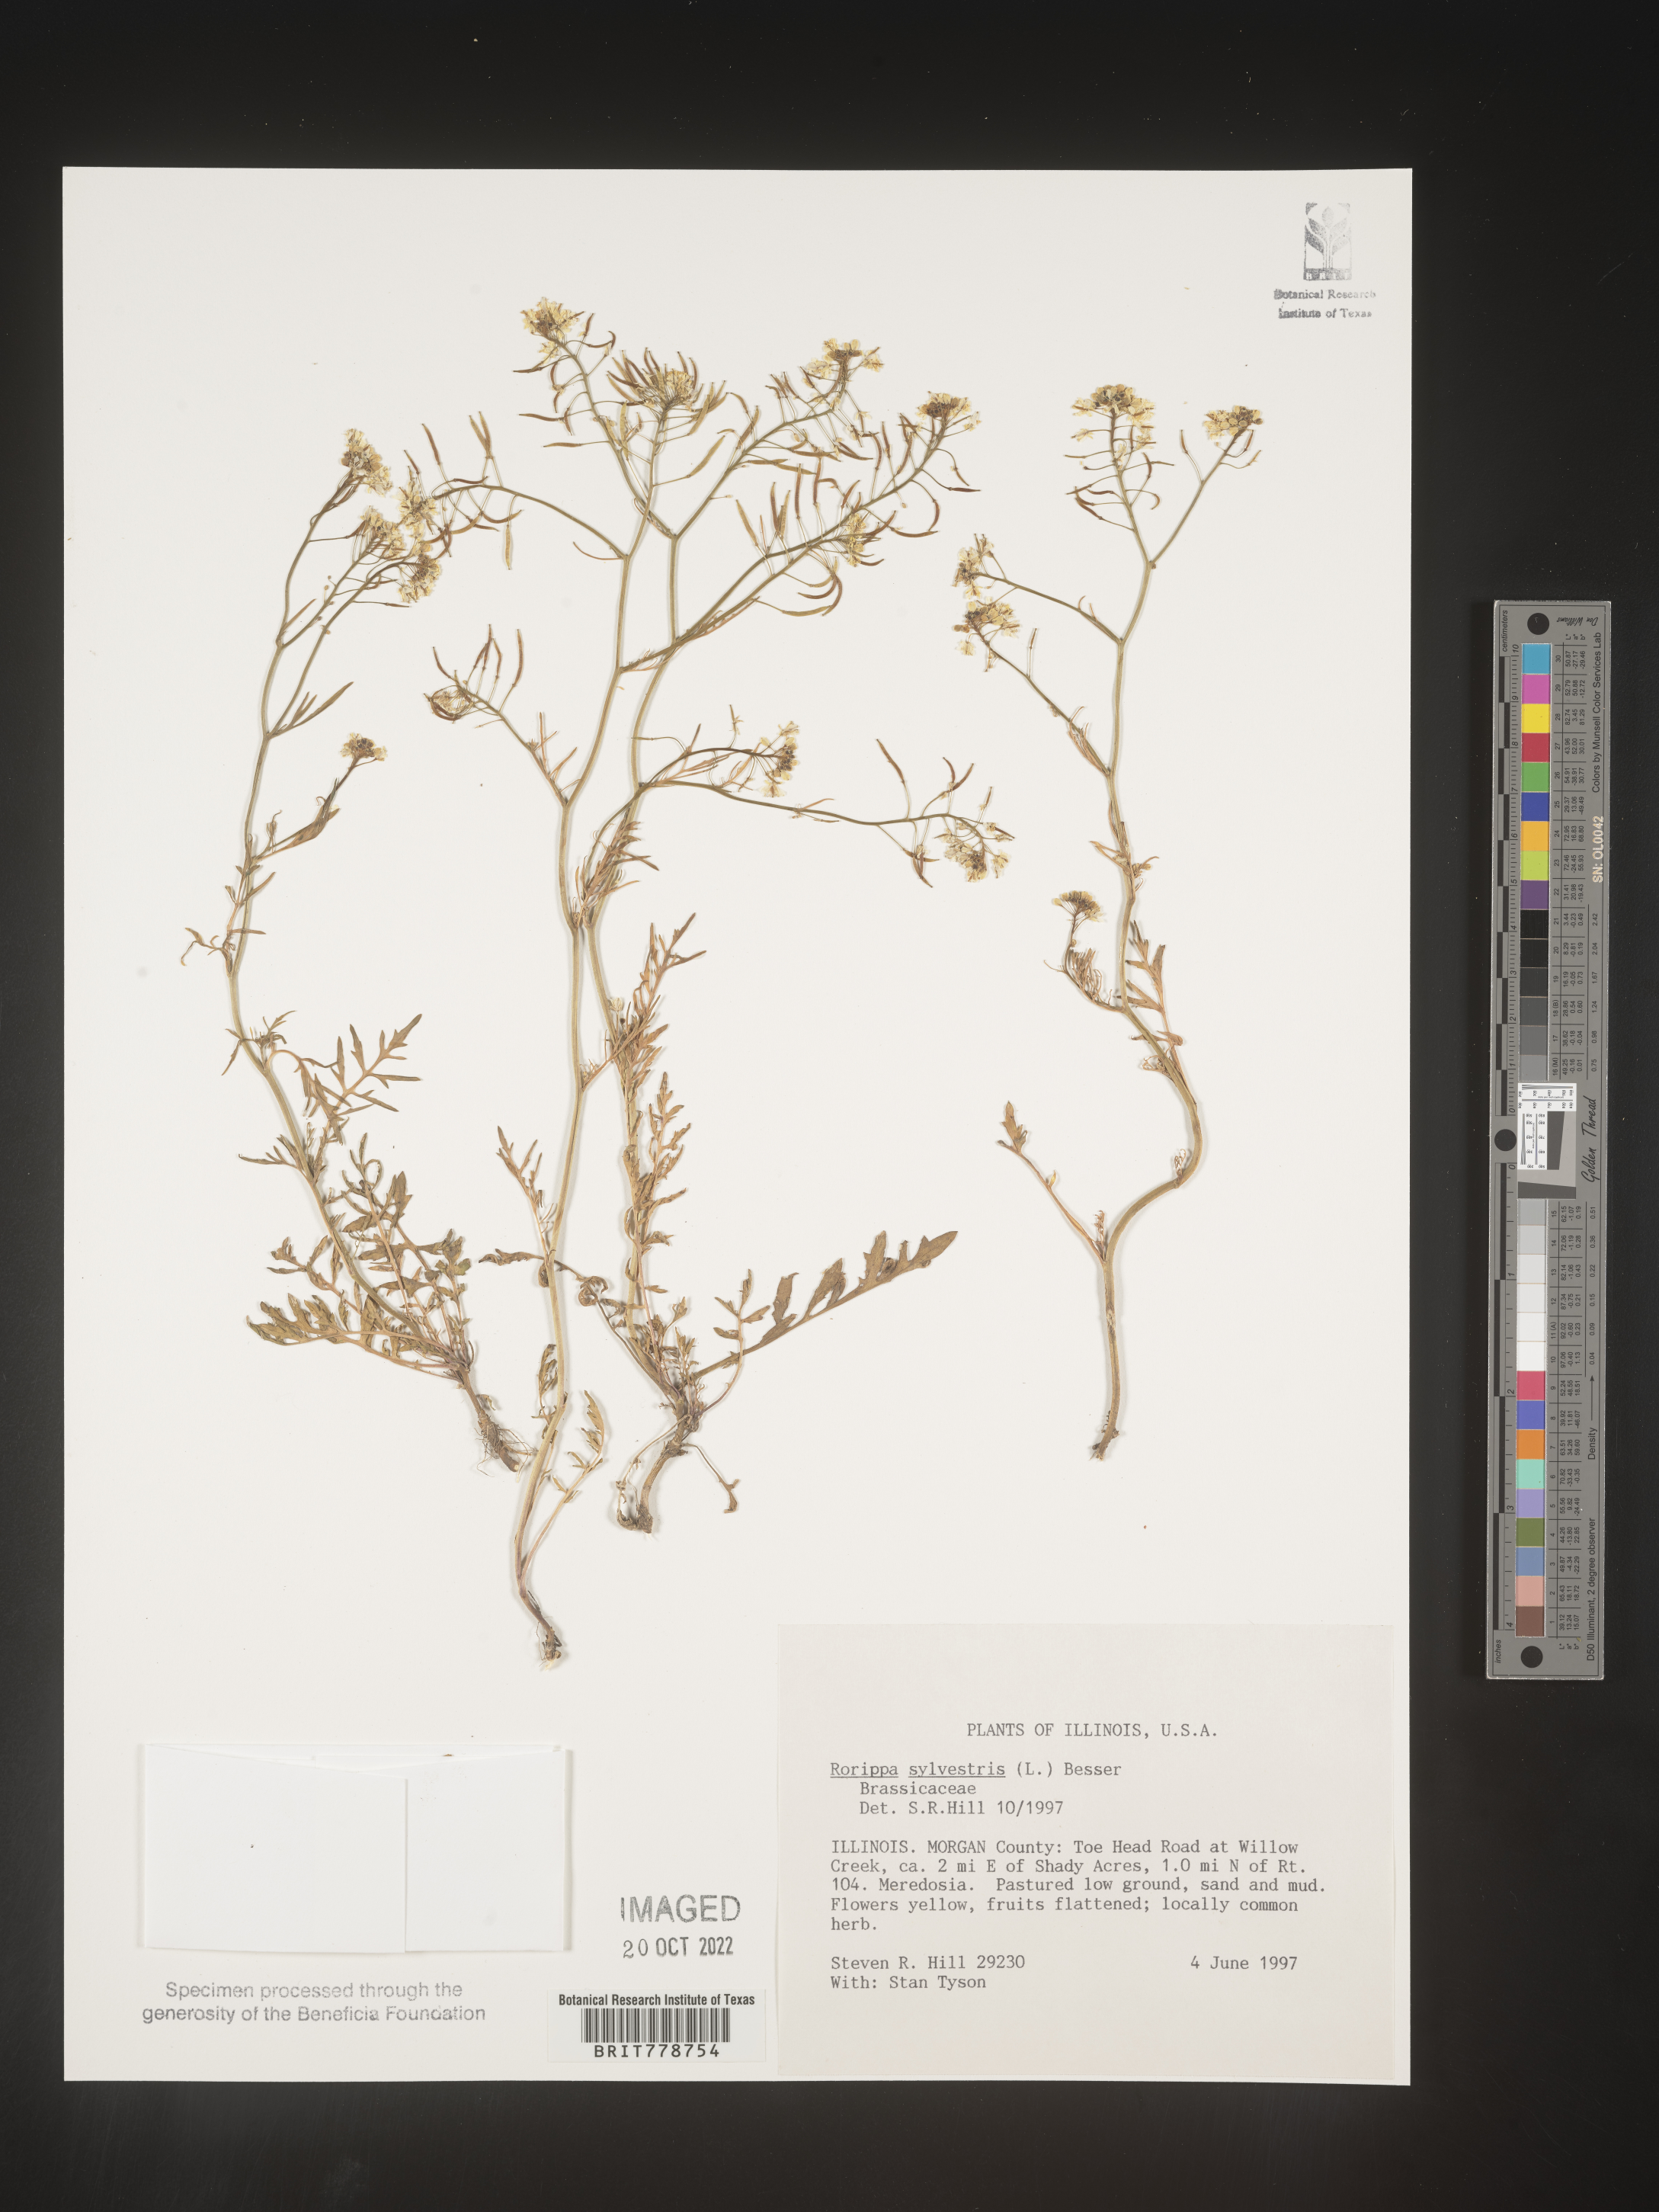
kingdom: Plantae
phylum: Tracheophyta
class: Magnoliopsida
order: Brassicales
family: Brassicaceae
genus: Rorippa
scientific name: Rorippa sylvestris
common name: Creeping yellowcress
